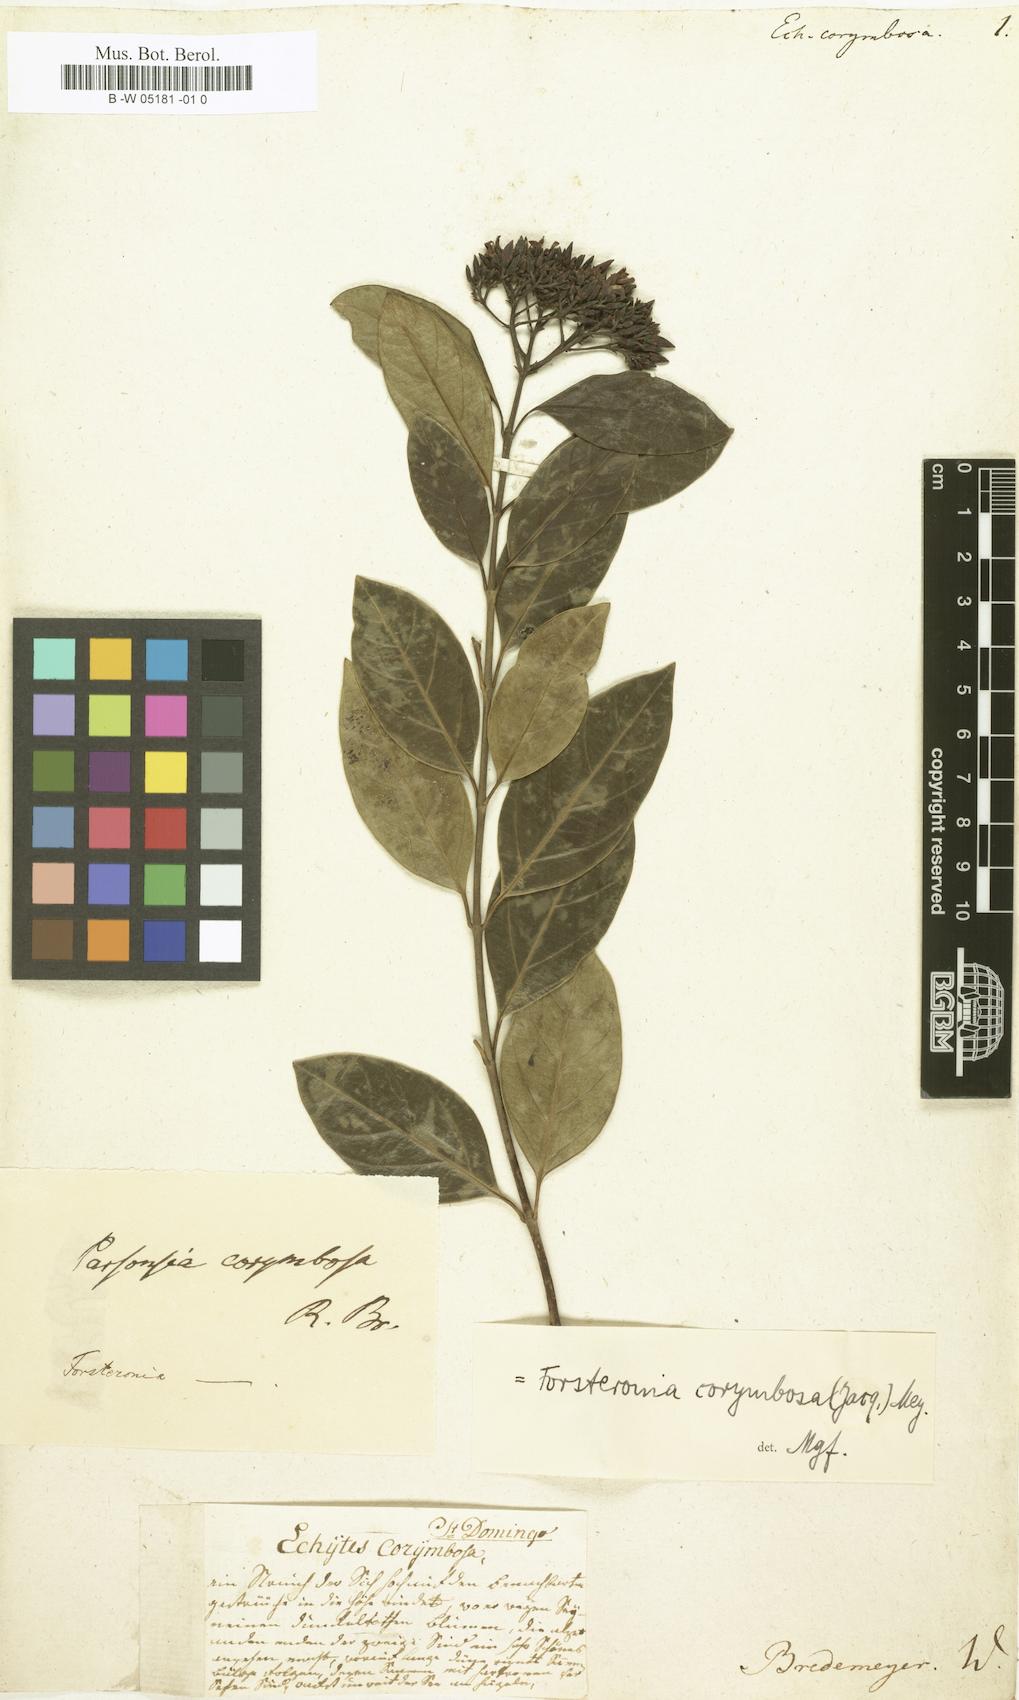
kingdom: Plantae
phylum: Tracheophyta
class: Magnoliopsida
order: Gentianales
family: Apocynaceae
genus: Pinochia
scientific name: Pinochia corymbosa
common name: Sanjuanera
